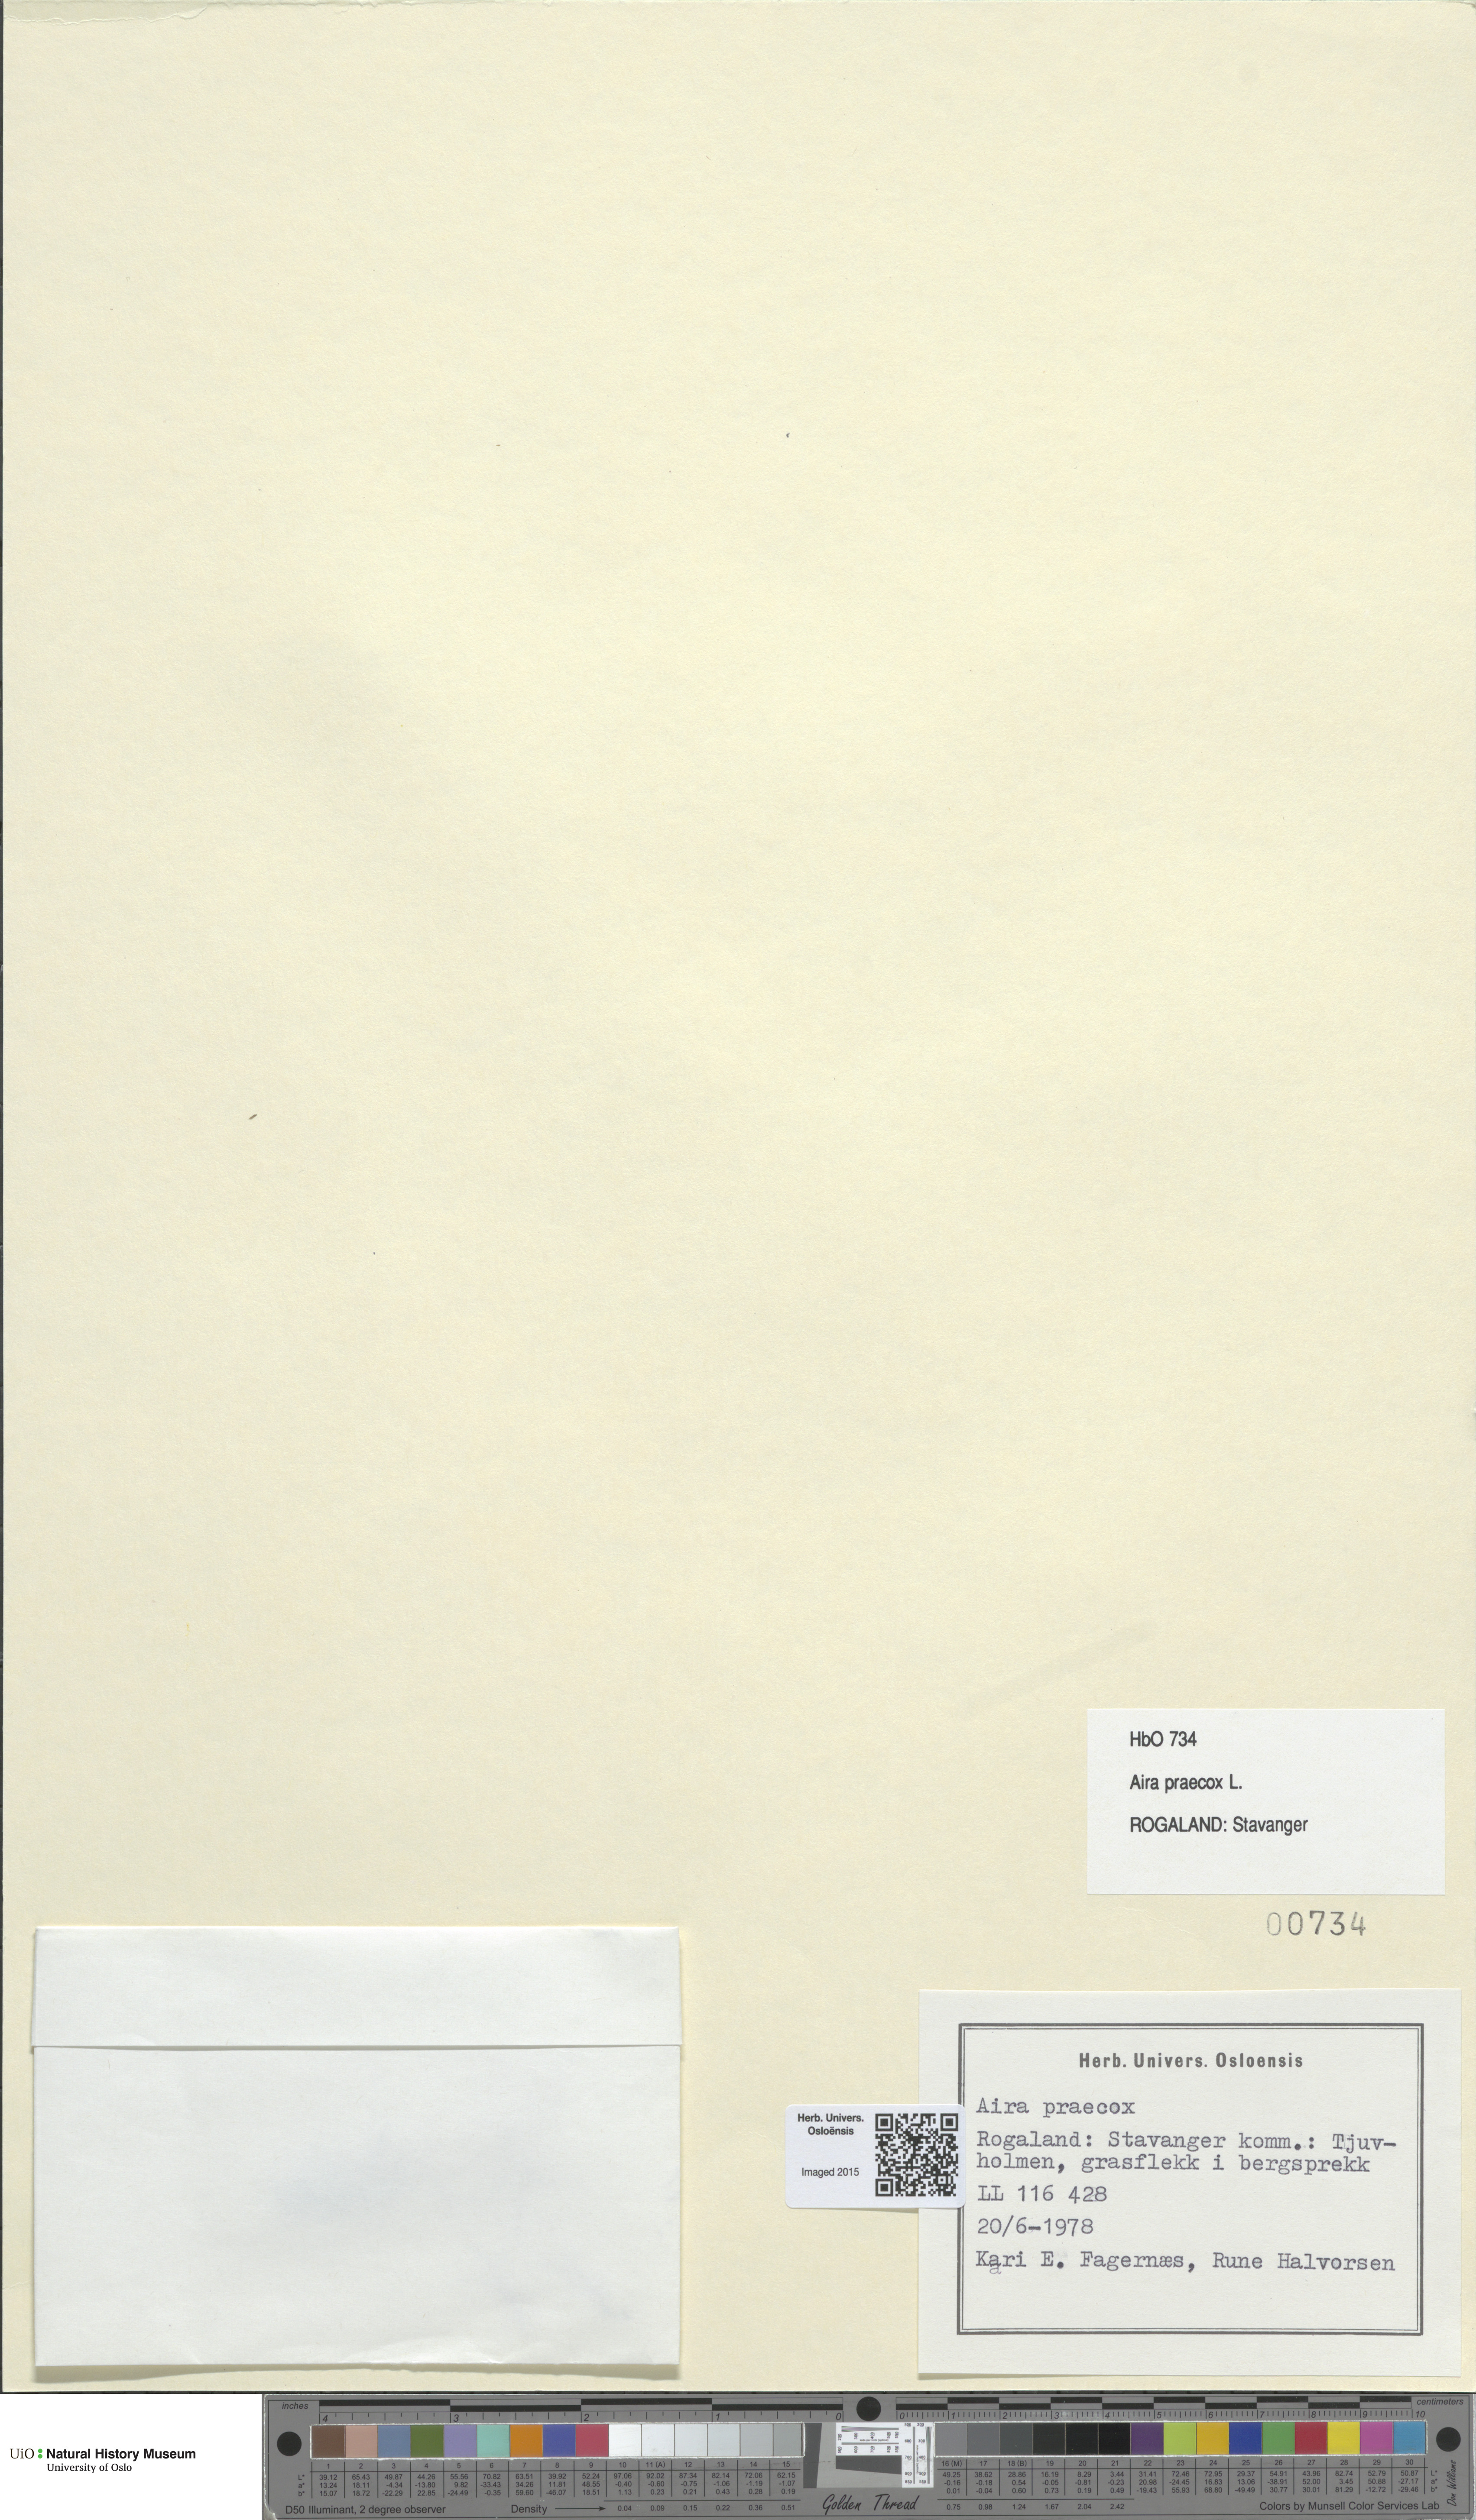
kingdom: Plantae
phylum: Tracheophyta
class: Liliopsida
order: Poales
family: Poaceae
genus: Aira
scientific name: Aira praecox
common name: Early hair-grass
